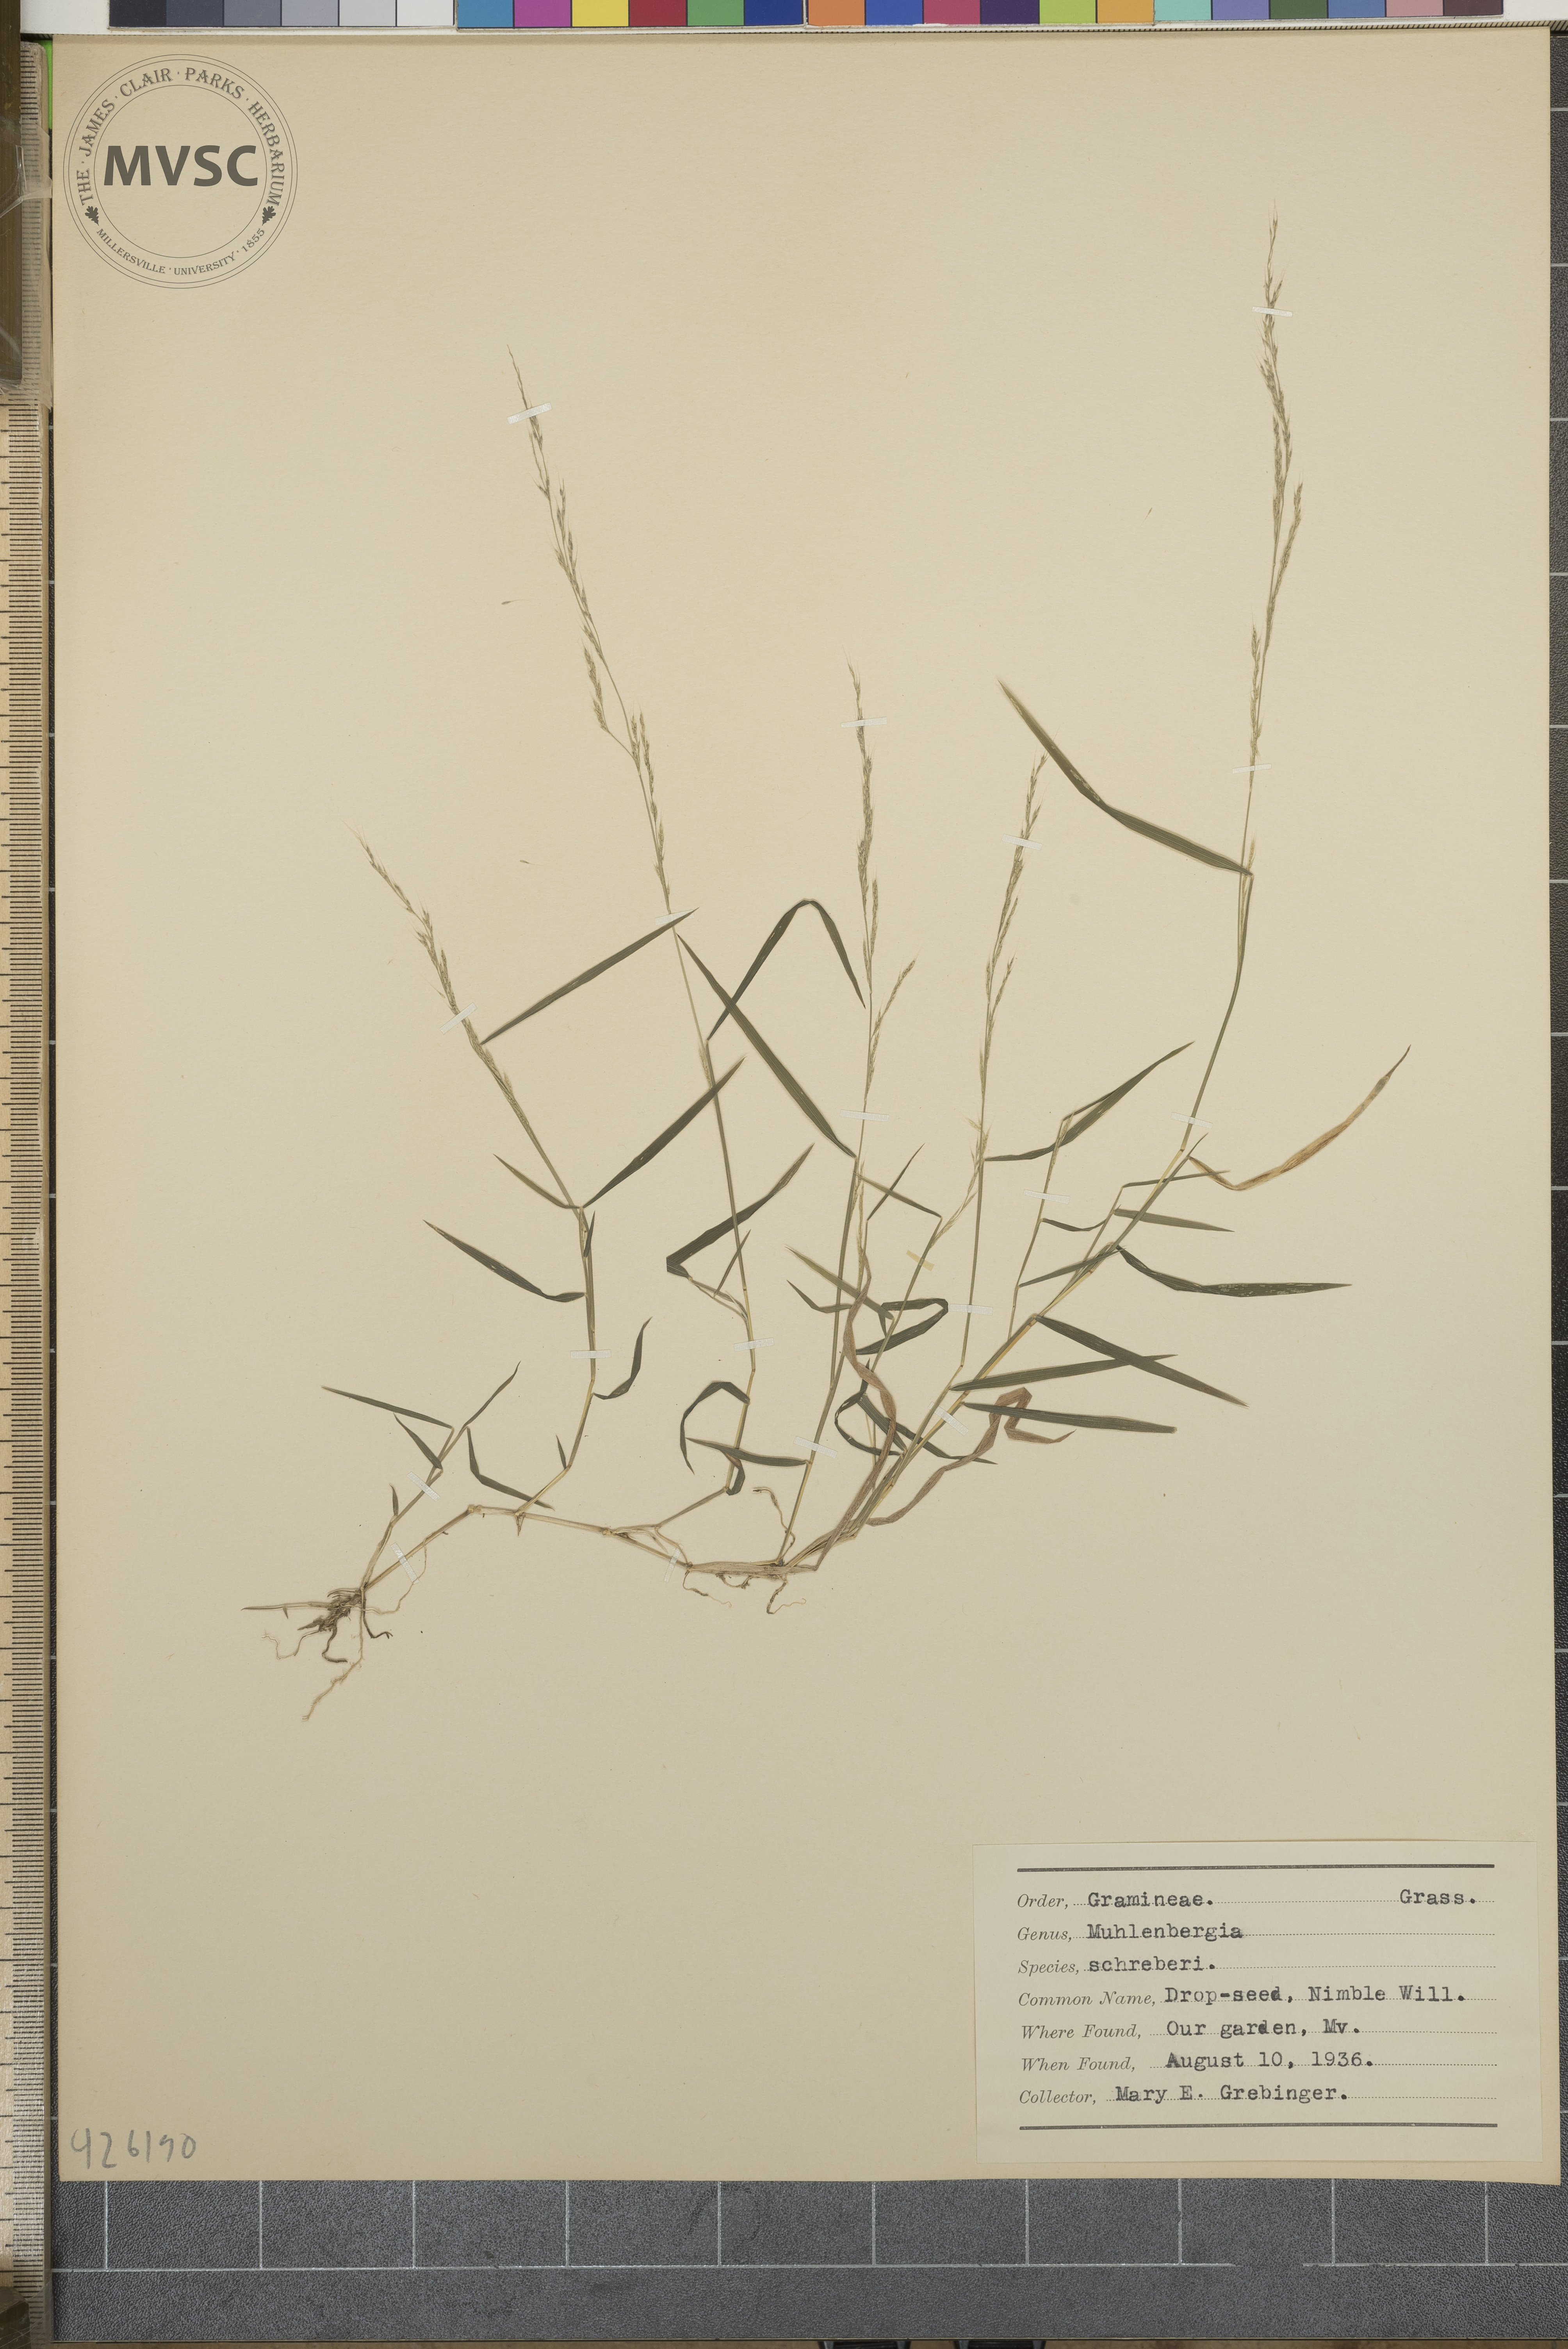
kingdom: Plantae
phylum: Tracheophyta
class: Liliopsida
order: Poales
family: Poaceae
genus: Muhlenbergia
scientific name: Muhlenbergia schreberi
